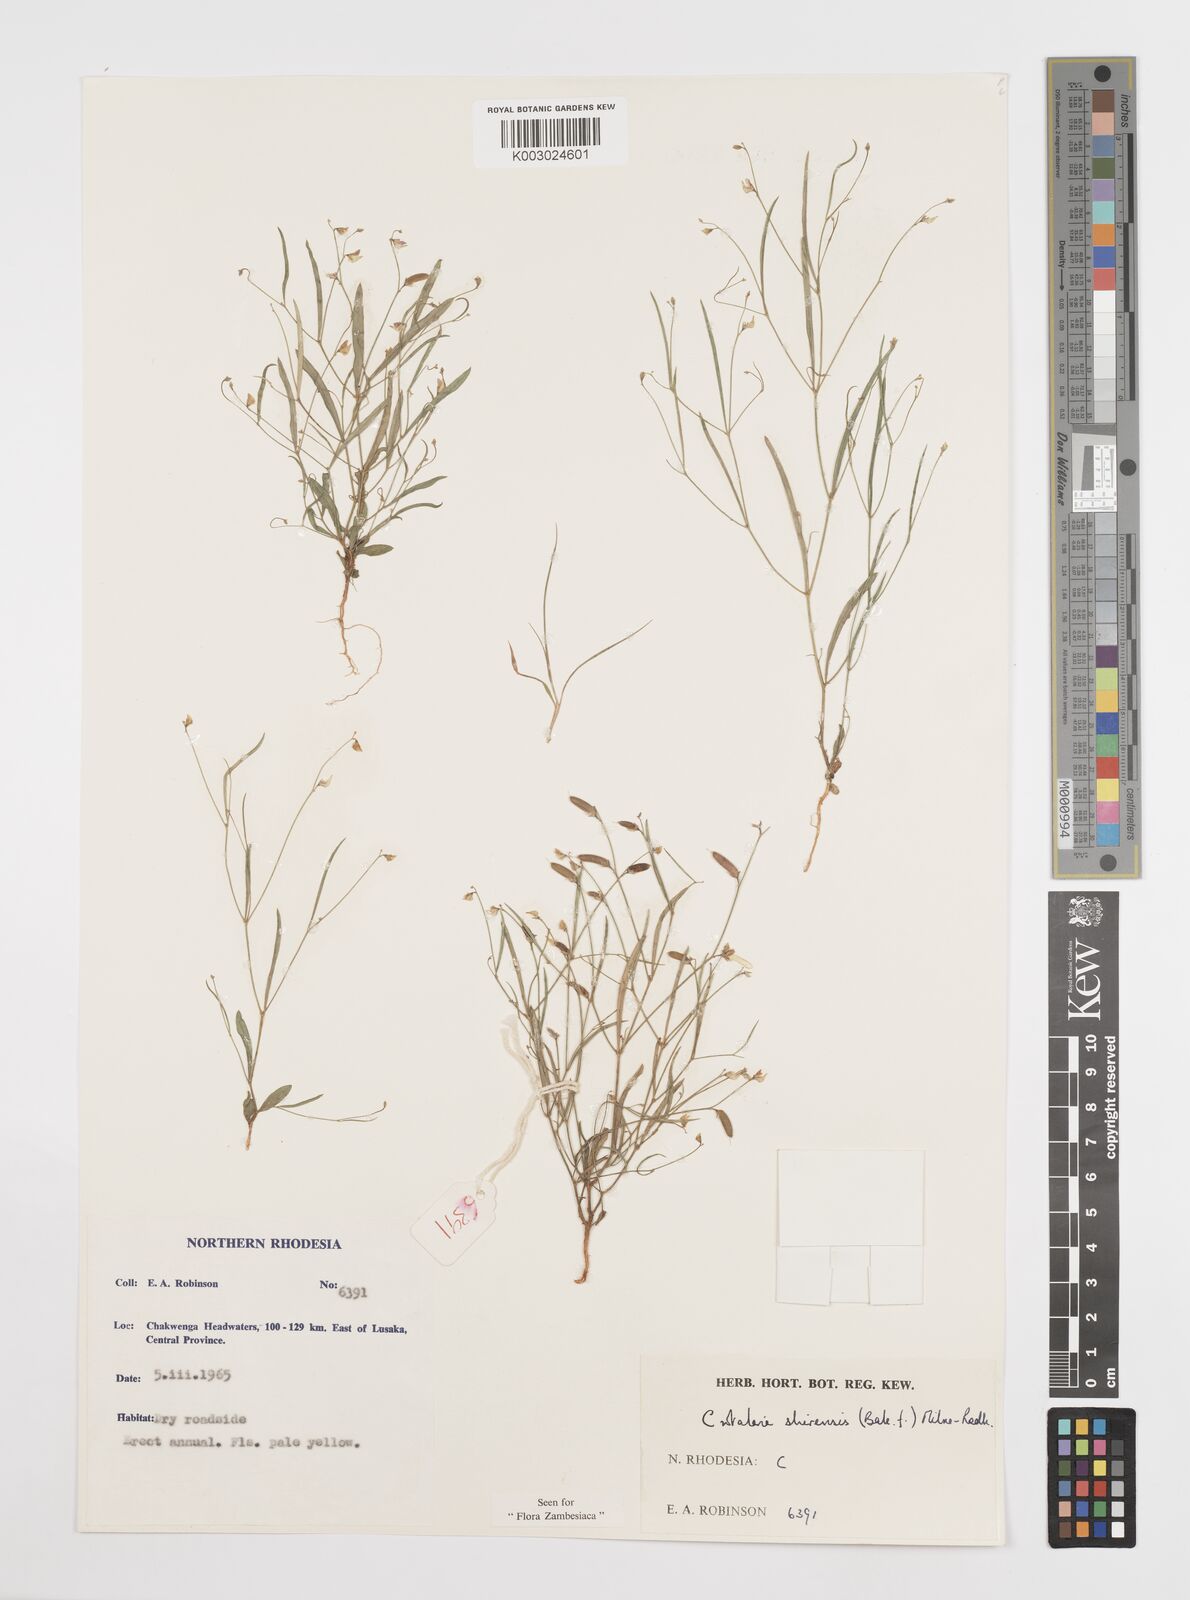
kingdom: Plantae
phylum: Tracheophyta
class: Magnoliopsida
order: Fabales
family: Fabaceae
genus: Crotalaria
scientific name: Crotalaria shirensis
